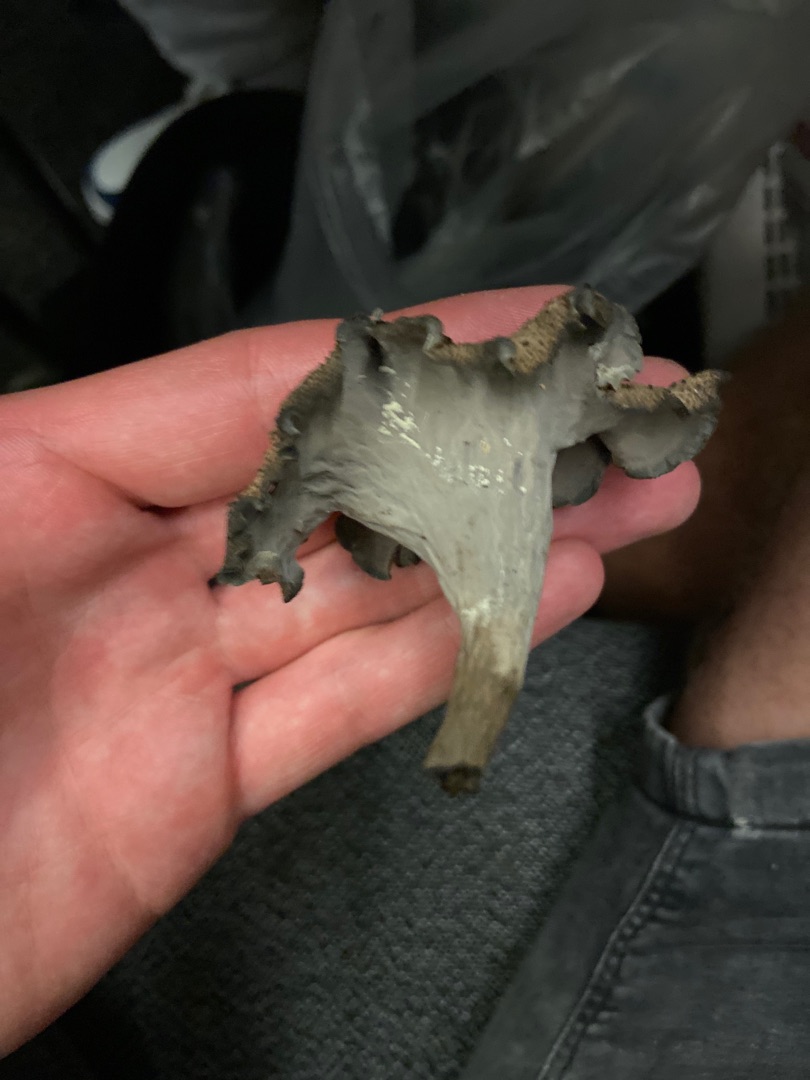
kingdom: Fungi
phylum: Basidiomycota
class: Agaricomycetes
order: Cantharellales
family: Hydnaceae
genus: Craterellus
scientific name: Craterellus cornucopioides
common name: Trompetsvamp
